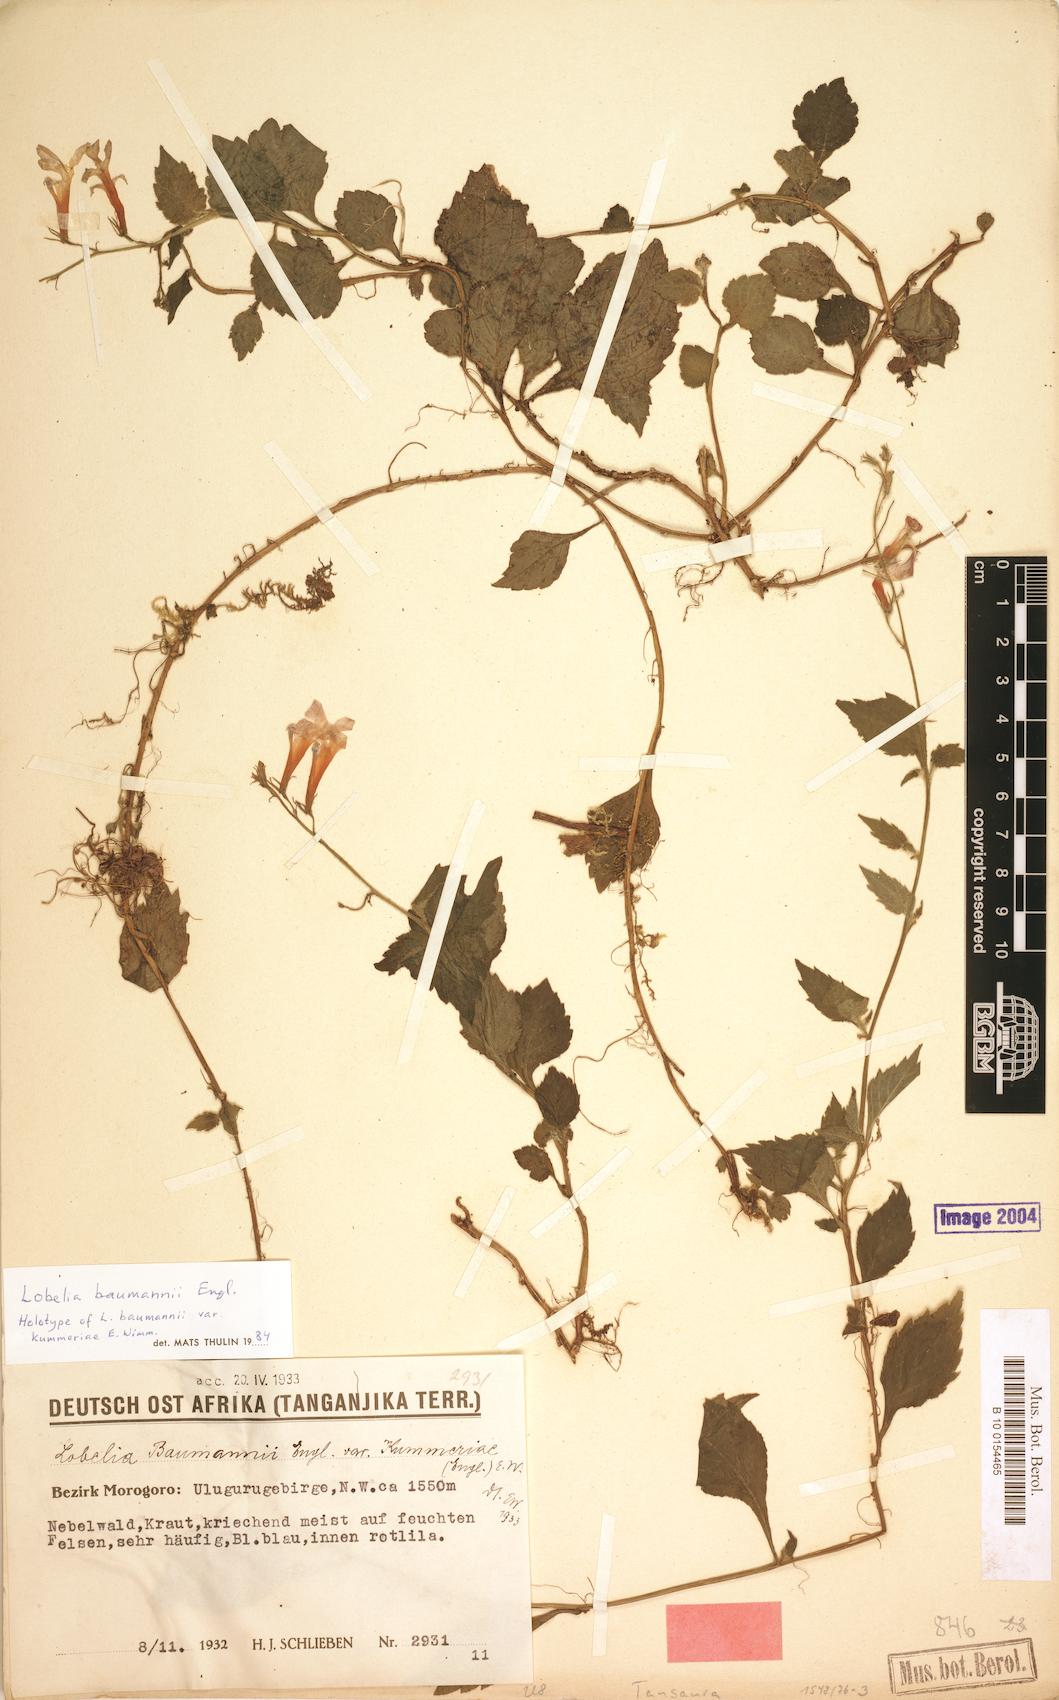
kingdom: Plantae
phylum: Tracheophyta
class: Magnoliopsida
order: Asterales
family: Campanulaceae
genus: Lobelia
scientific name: Lobelia baumannii
